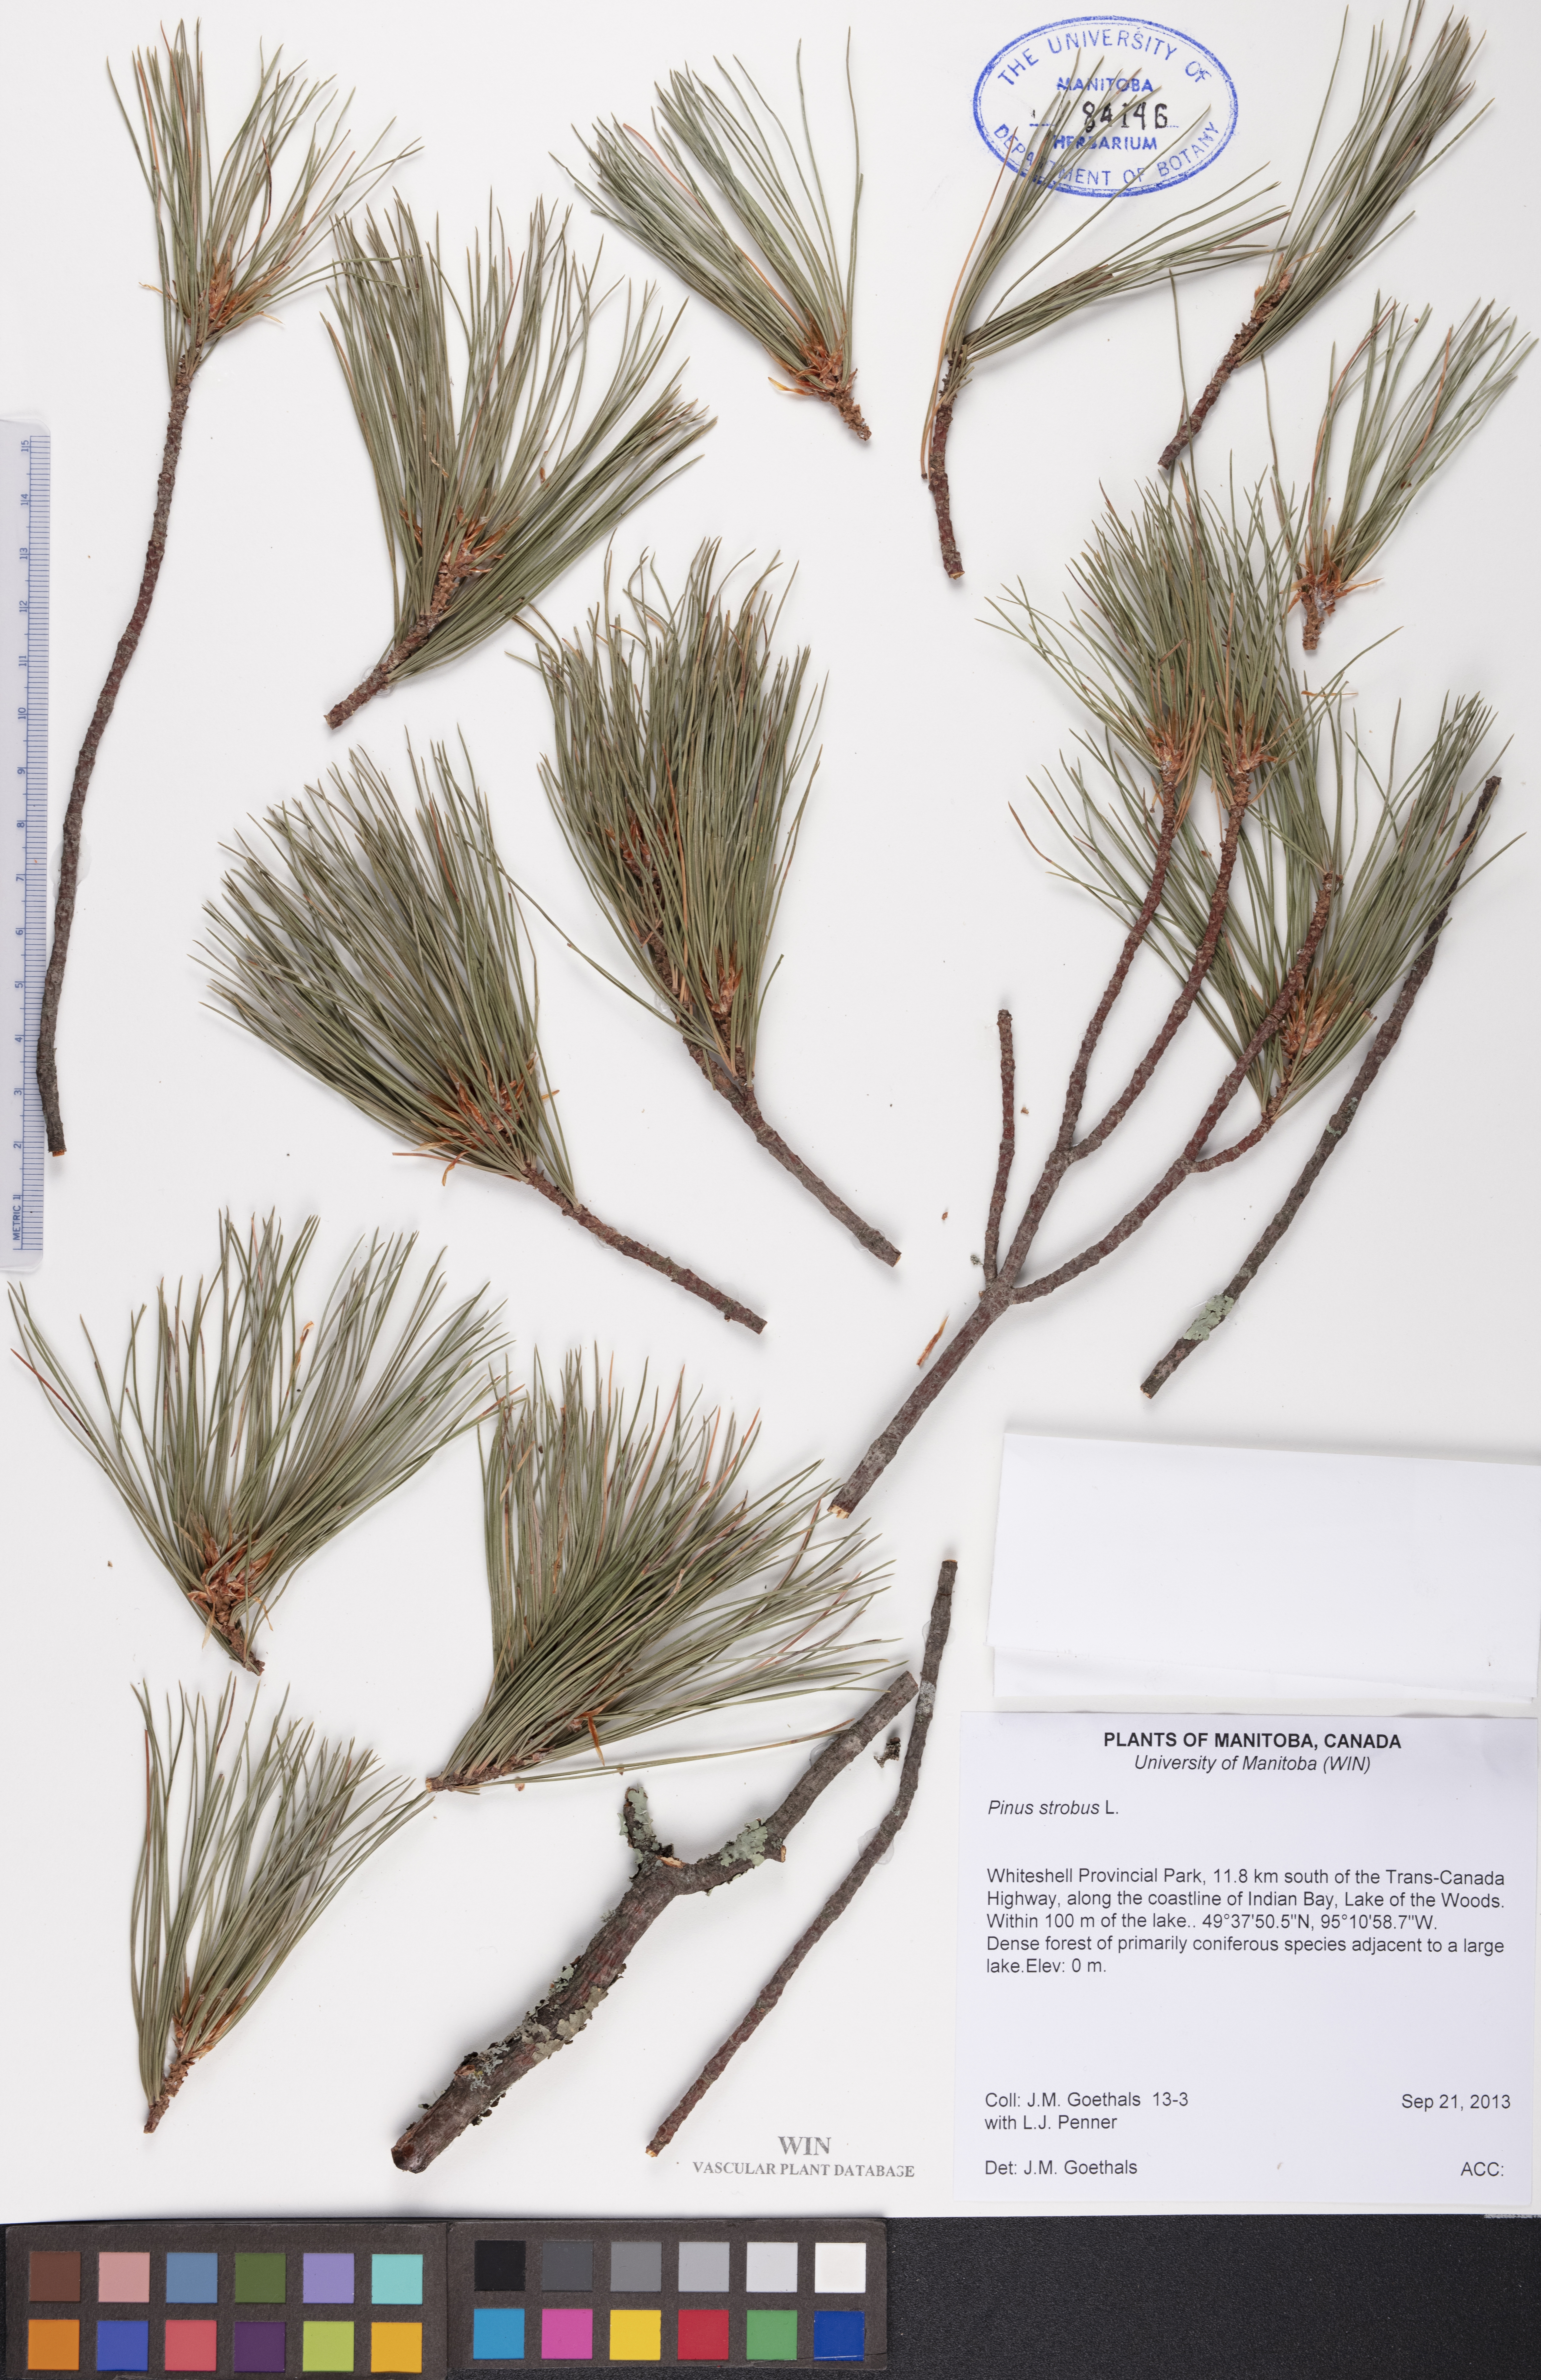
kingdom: Plantae
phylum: Tracheophyta
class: Pinopsida
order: Pinales
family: Pinaceae
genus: Pinus
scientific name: Pinus strobus
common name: Weymouth pine
